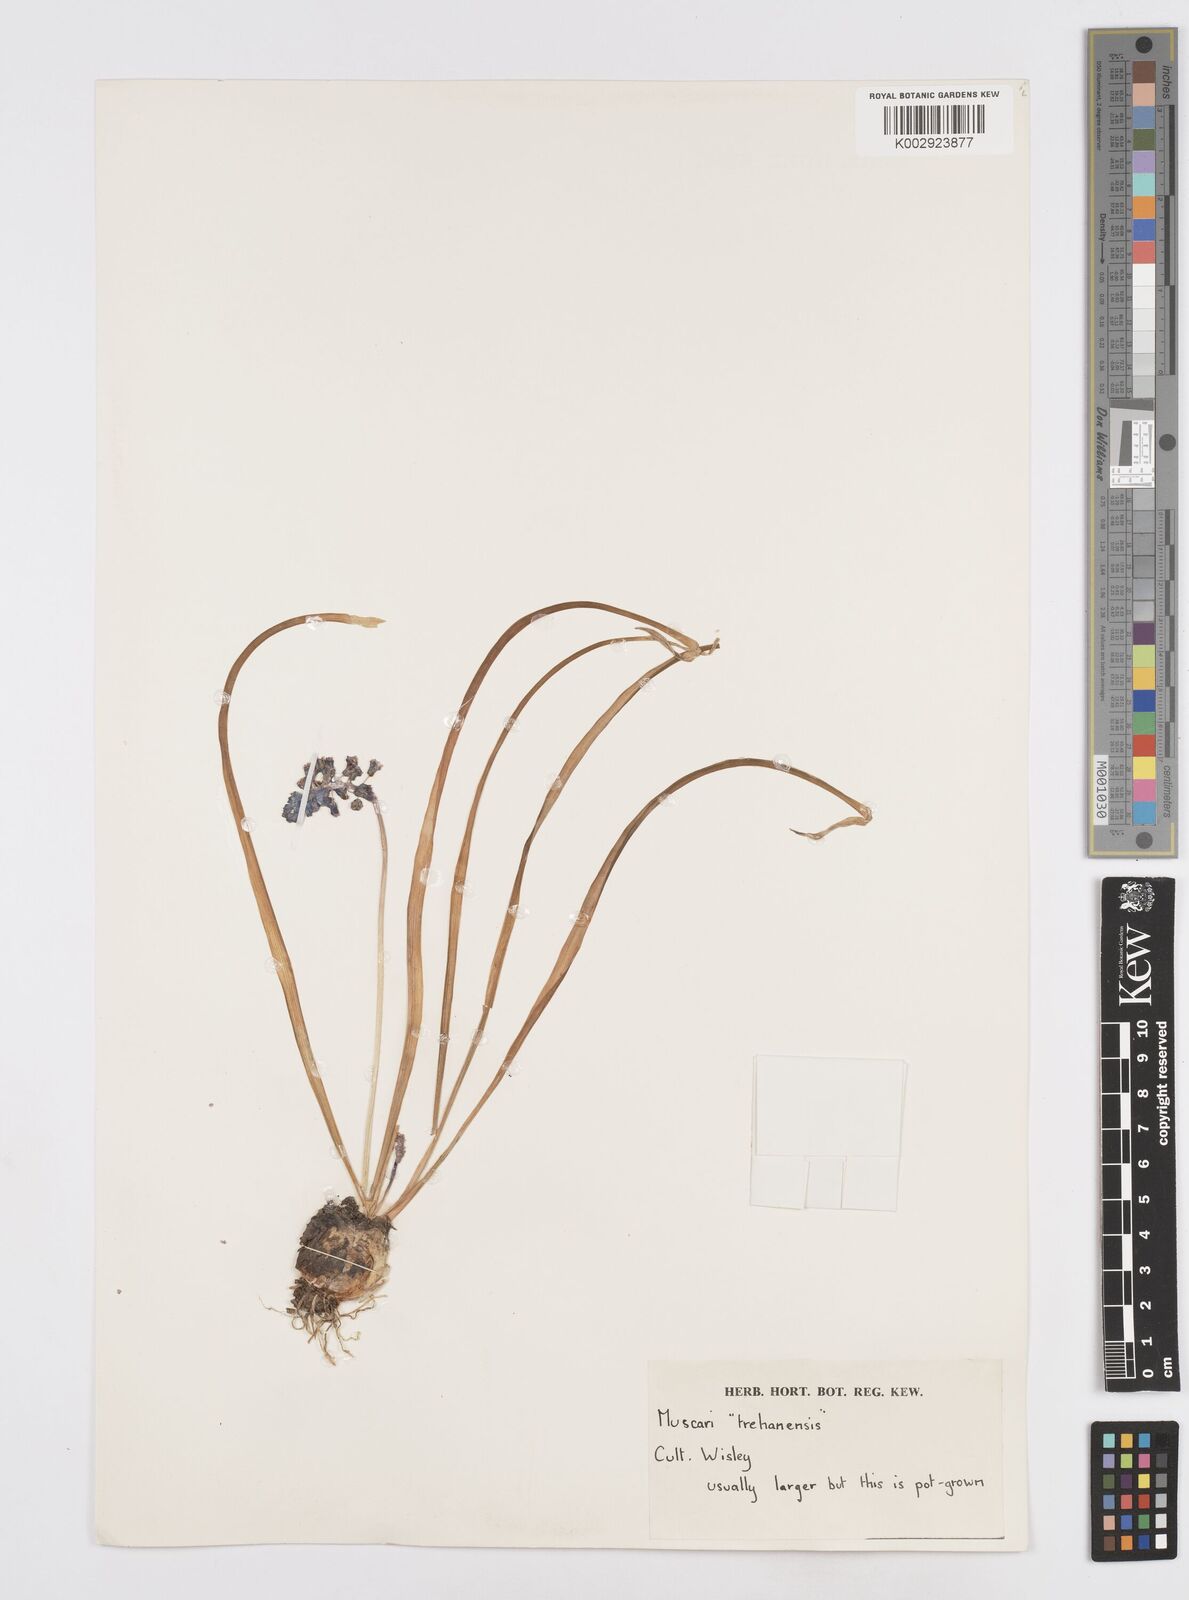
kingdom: Plantae
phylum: Tracheophyta
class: Liliopsida
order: Asparagales
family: Asparagaceae
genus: Muscari
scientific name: Muscari
